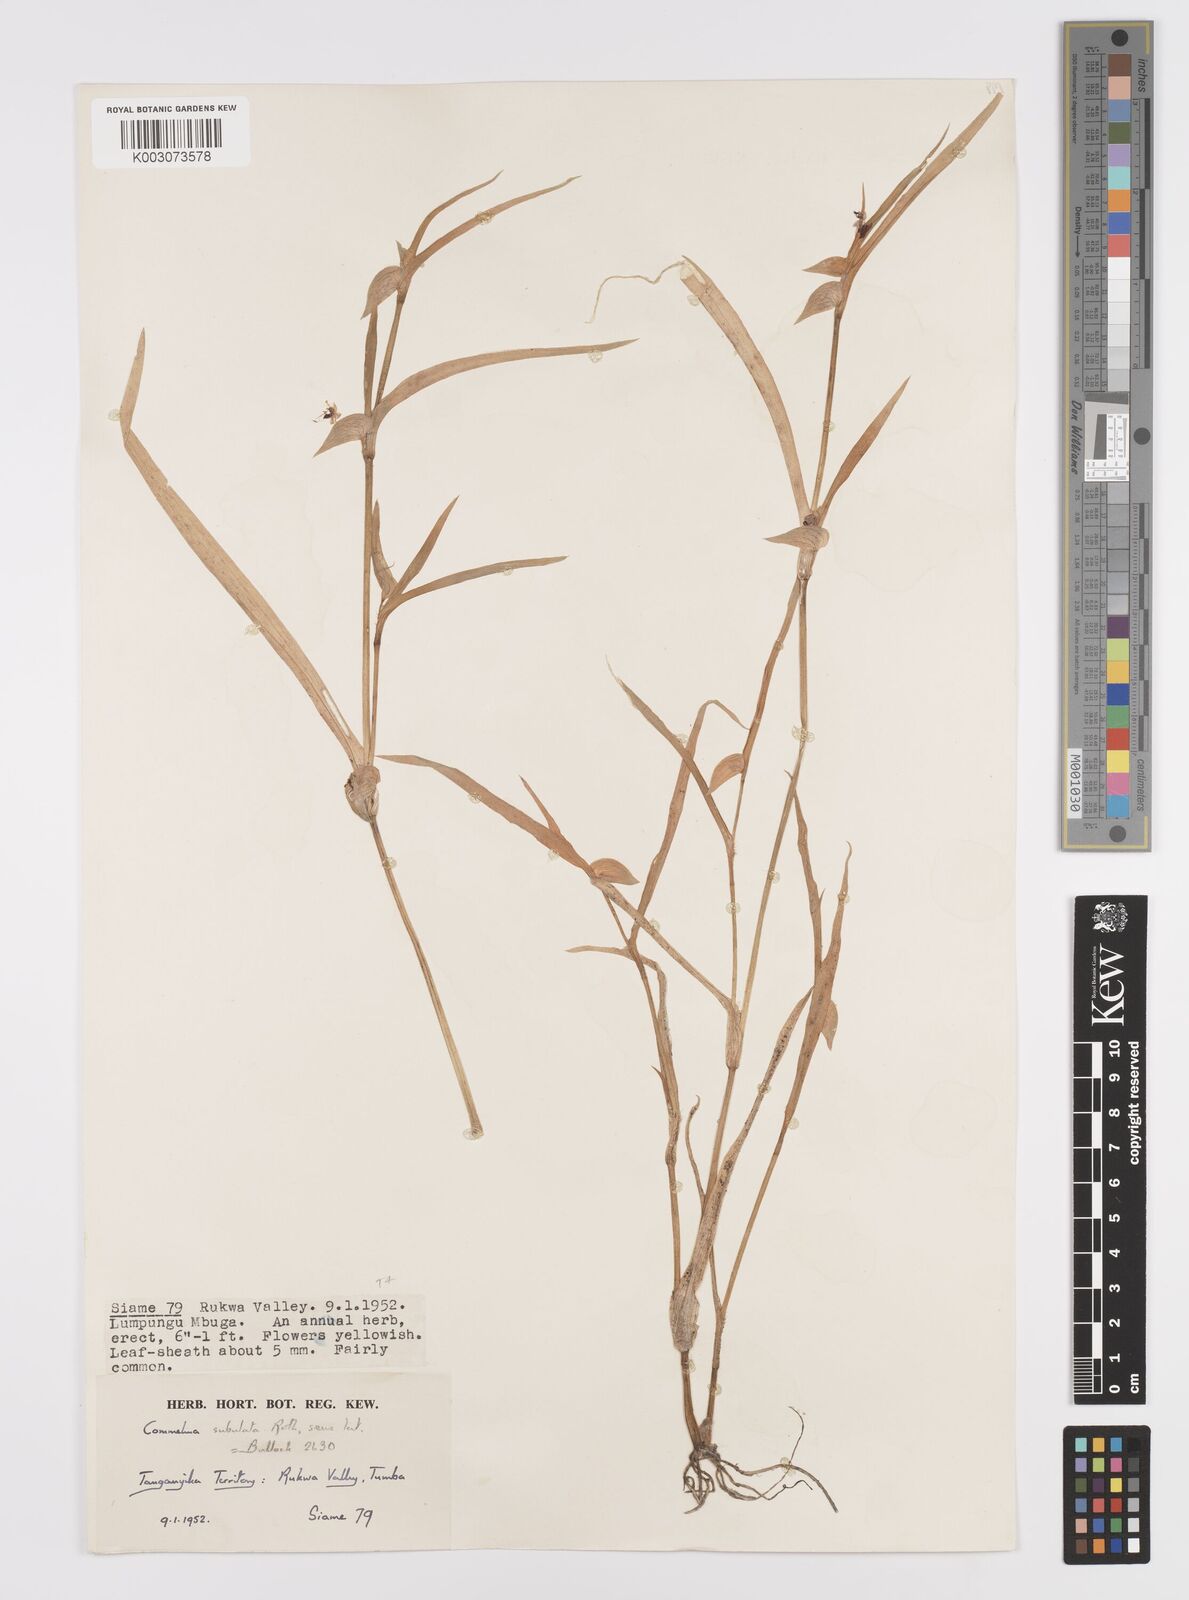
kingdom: Plantae
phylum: Tracheophyta
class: Liliopsida
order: Commelinales
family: Commelinaceae
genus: Commelina
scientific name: Commelina subulata
